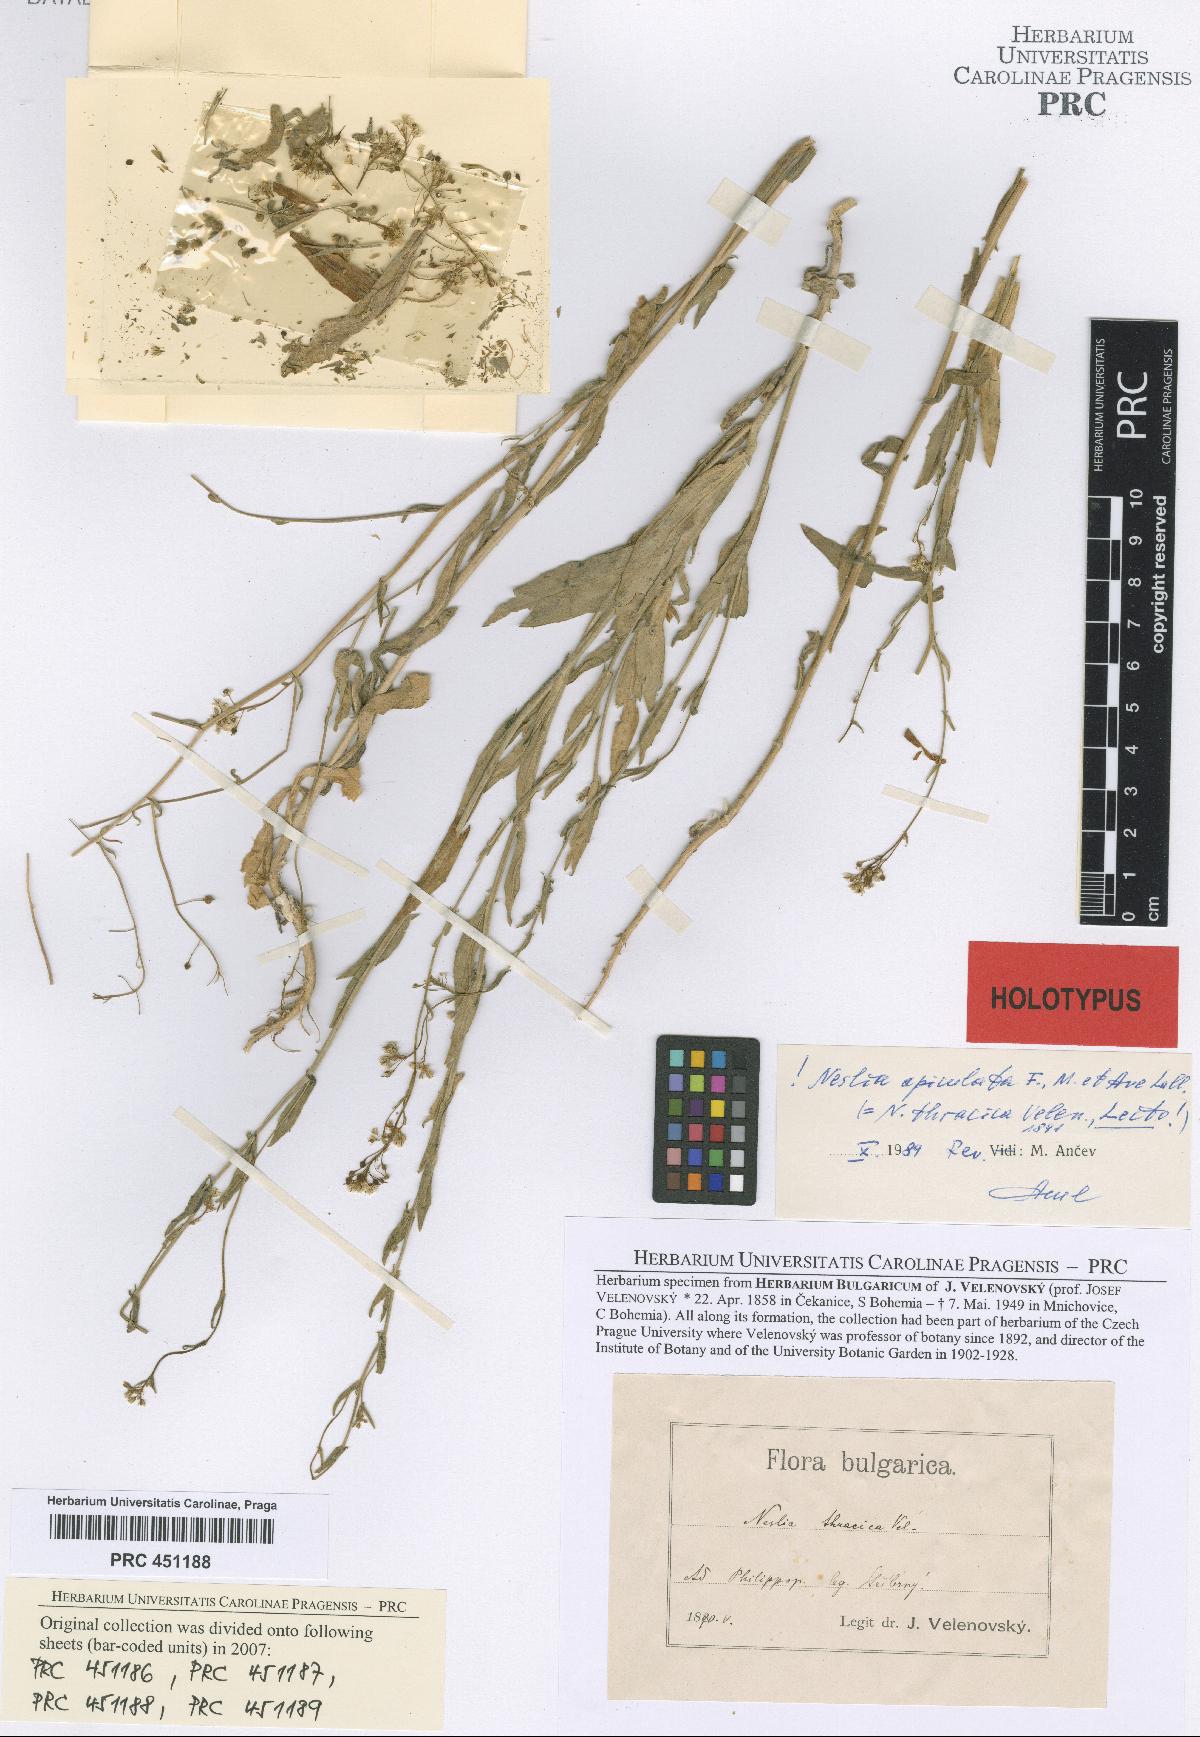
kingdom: Plantae
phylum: Tracheophyta
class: Magnoliopsida
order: Brassicales
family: Brassicaceae
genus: Neslia
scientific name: Neslia paniculata
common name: Ball mustard
